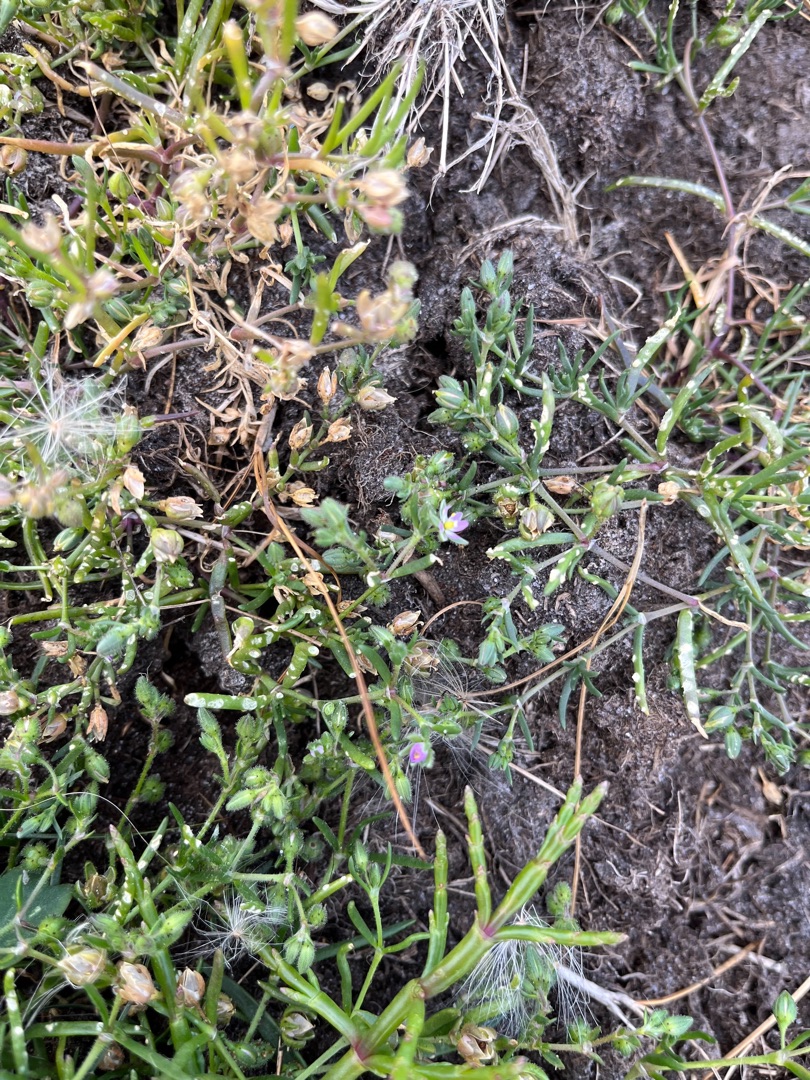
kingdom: Plantae
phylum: Tracheophyta
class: Magnoliopsida
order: Caryophyllales
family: Caryophyllaceae
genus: Spergularia
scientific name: Spergularia media
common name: Vingefrøet hindeknæ
